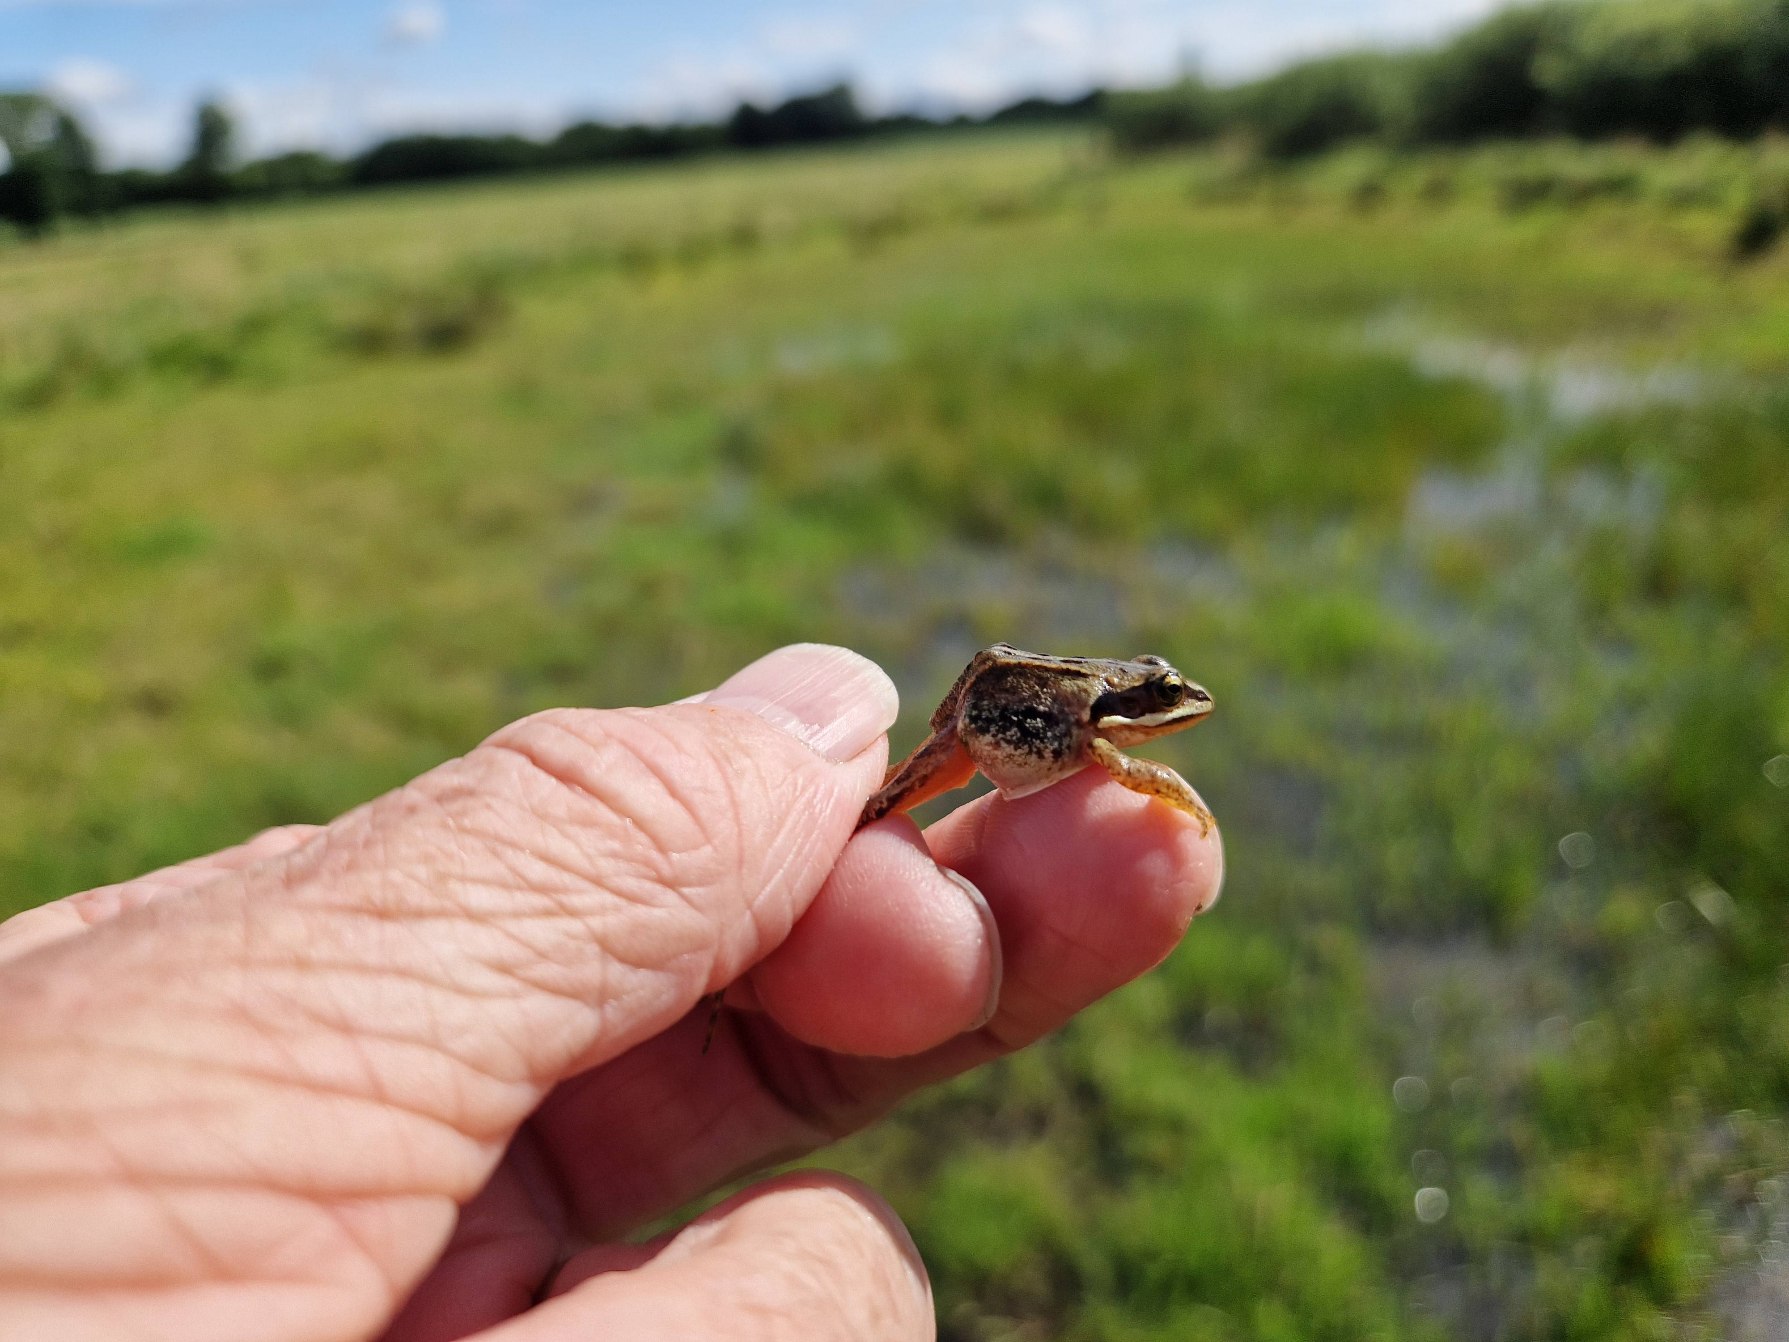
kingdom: Animalia
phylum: Chordata
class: Amphibia
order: Anura
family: Ranidae
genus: Rana
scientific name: Rana arvalis
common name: Spidssnudet frø
